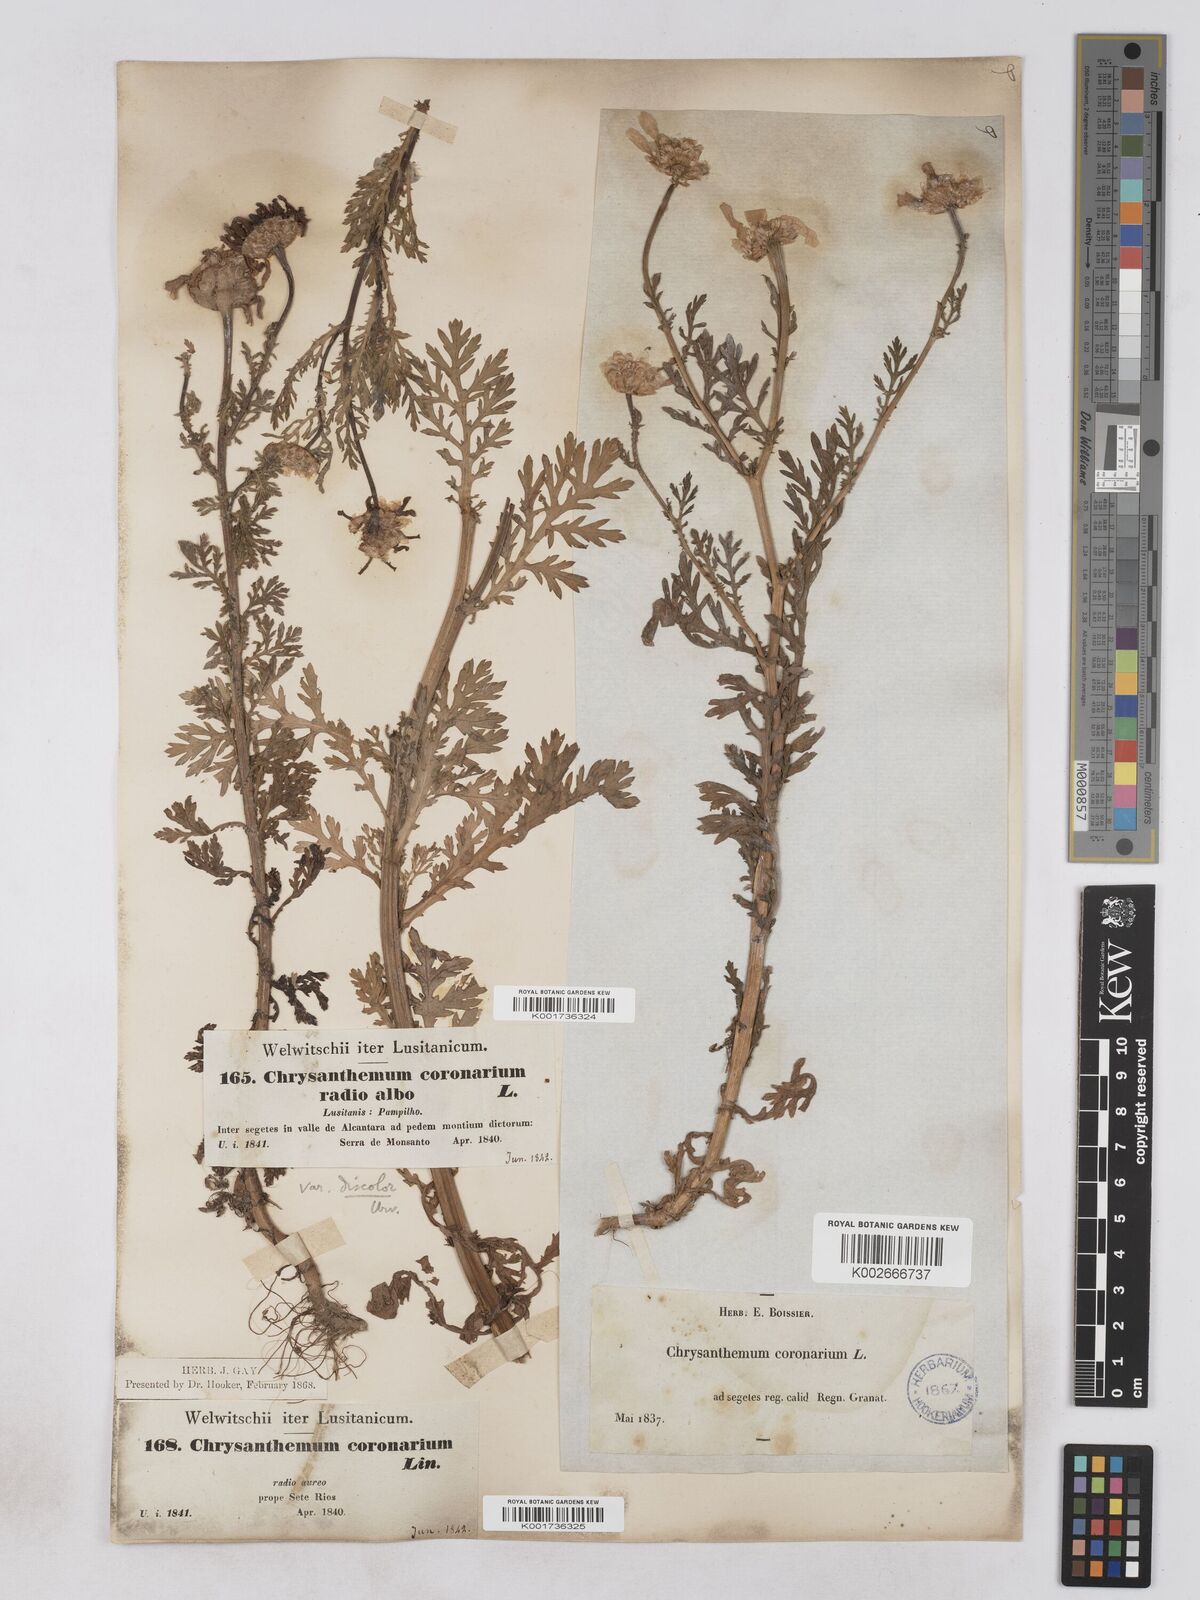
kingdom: Plantae
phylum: Tracheophyta
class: Magnoliopsida
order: Asterales
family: Asteraceae
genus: Glebionis
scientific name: Glebionis
